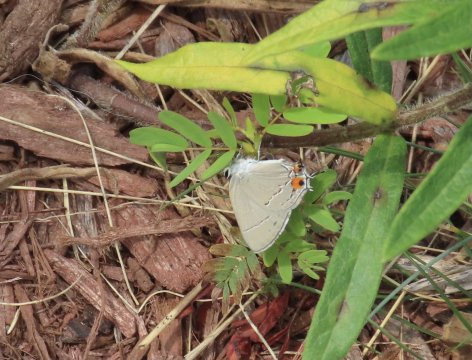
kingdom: Animalia
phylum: Arthropoda
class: Insecta
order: Lepidoptera
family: Lycaenidae
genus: Strymon
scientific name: Strymon melinus
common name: Gray Hairstreak
